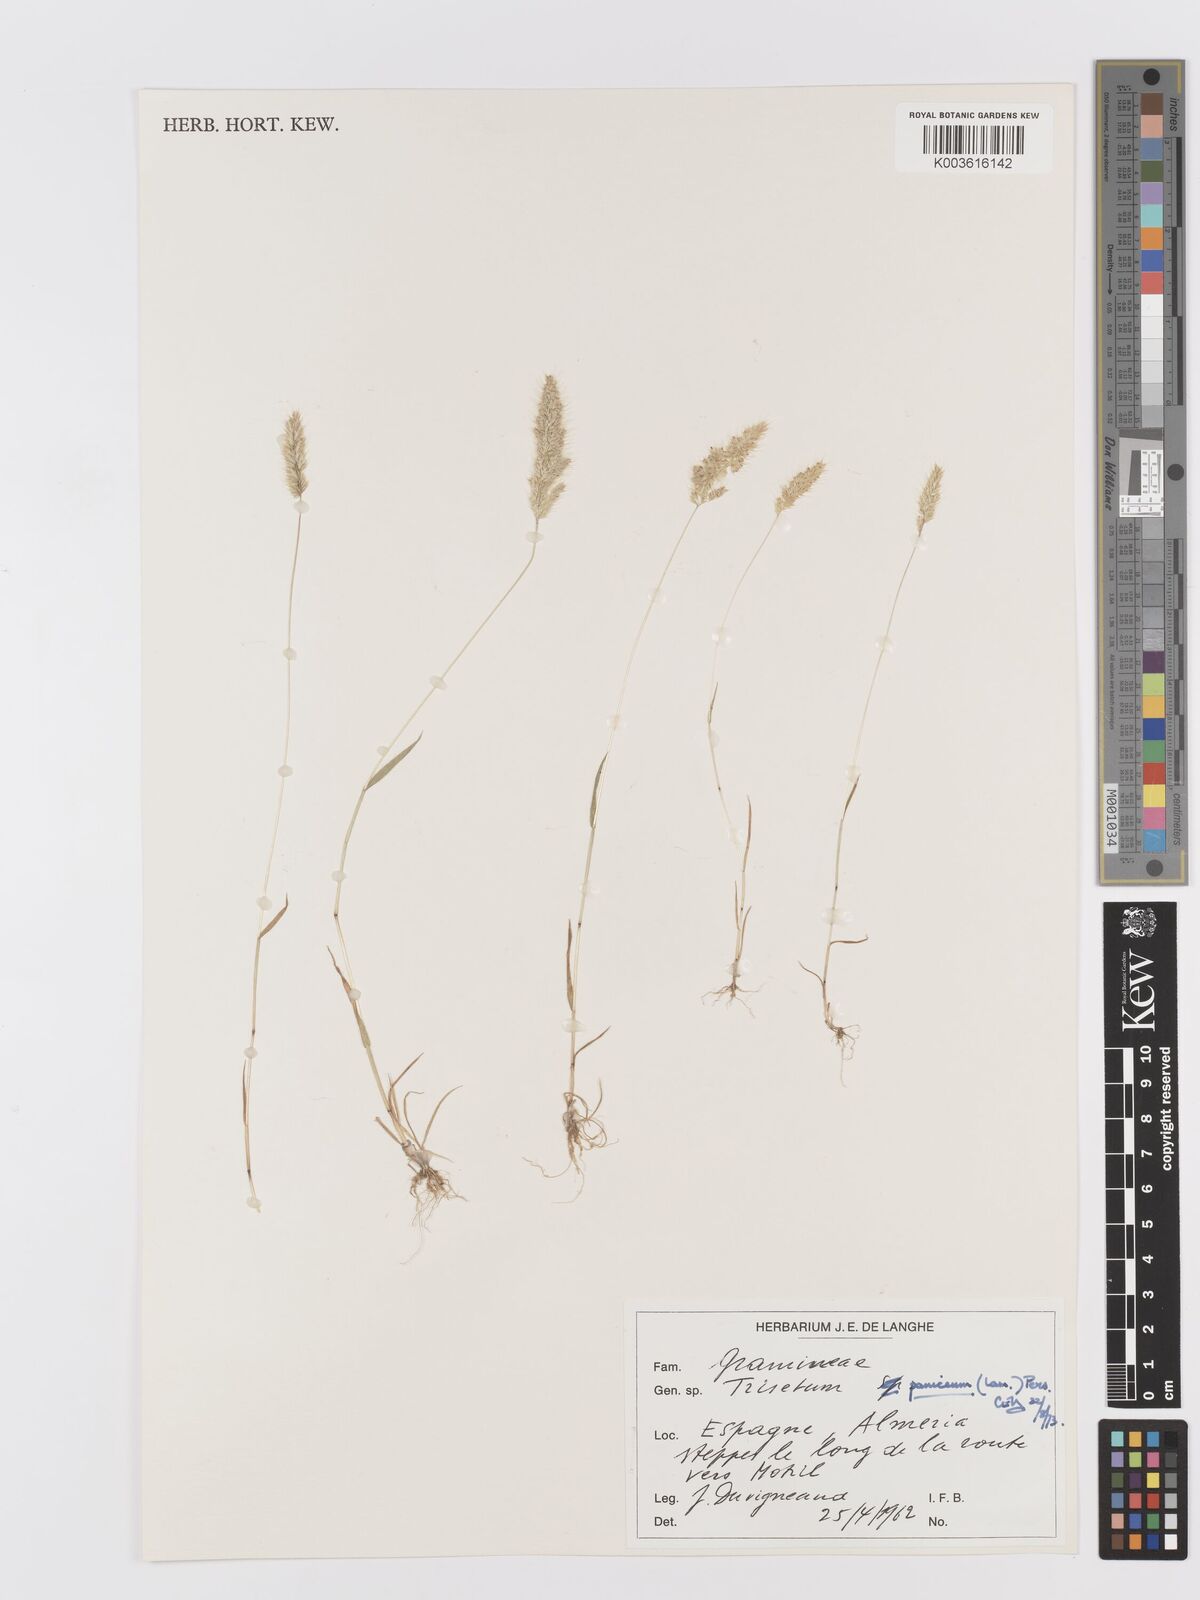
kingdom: Plantae
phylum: Tracheophyta
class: Liliopsida
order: Poales
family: Poaceae
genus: Trisetaria
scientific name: Trisetaria panicea
